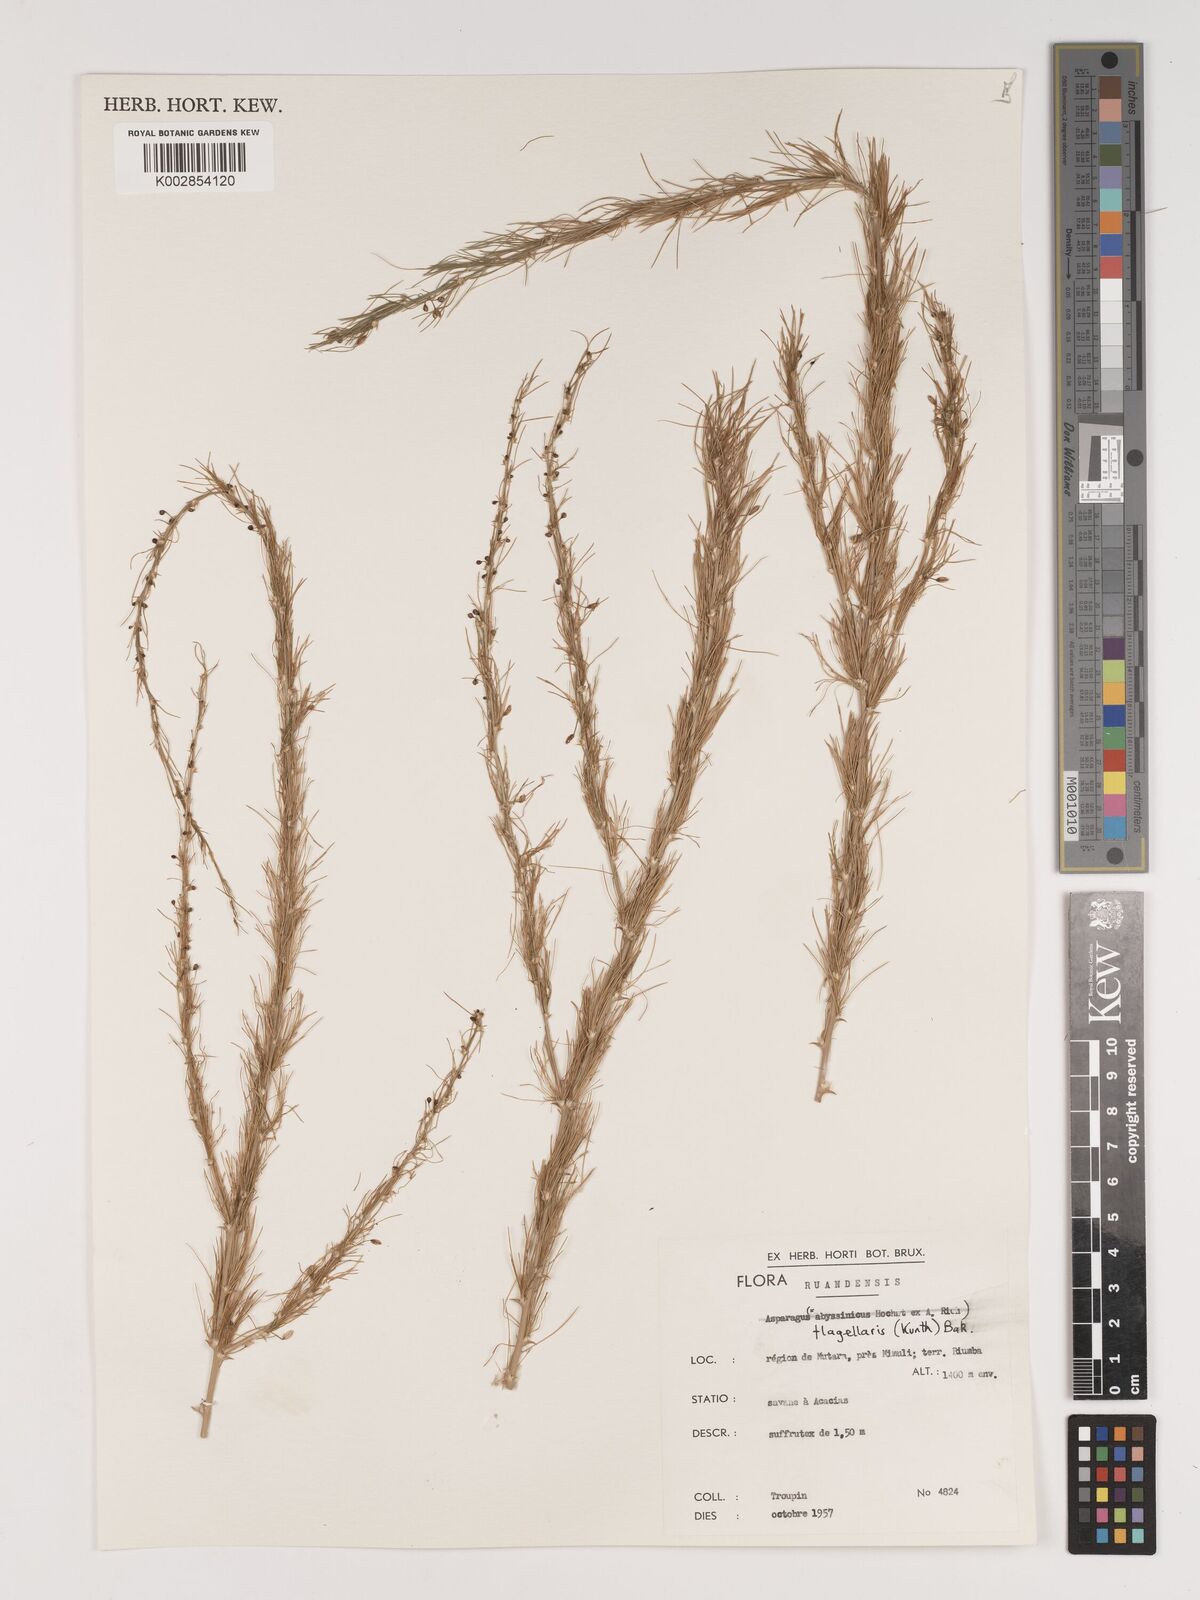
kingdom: Plantae
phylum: Tracheophyta
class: Liliopsida
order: Asparagales
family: Asparagaceae
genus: Asparagus
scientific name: Asparagus flagellaris
